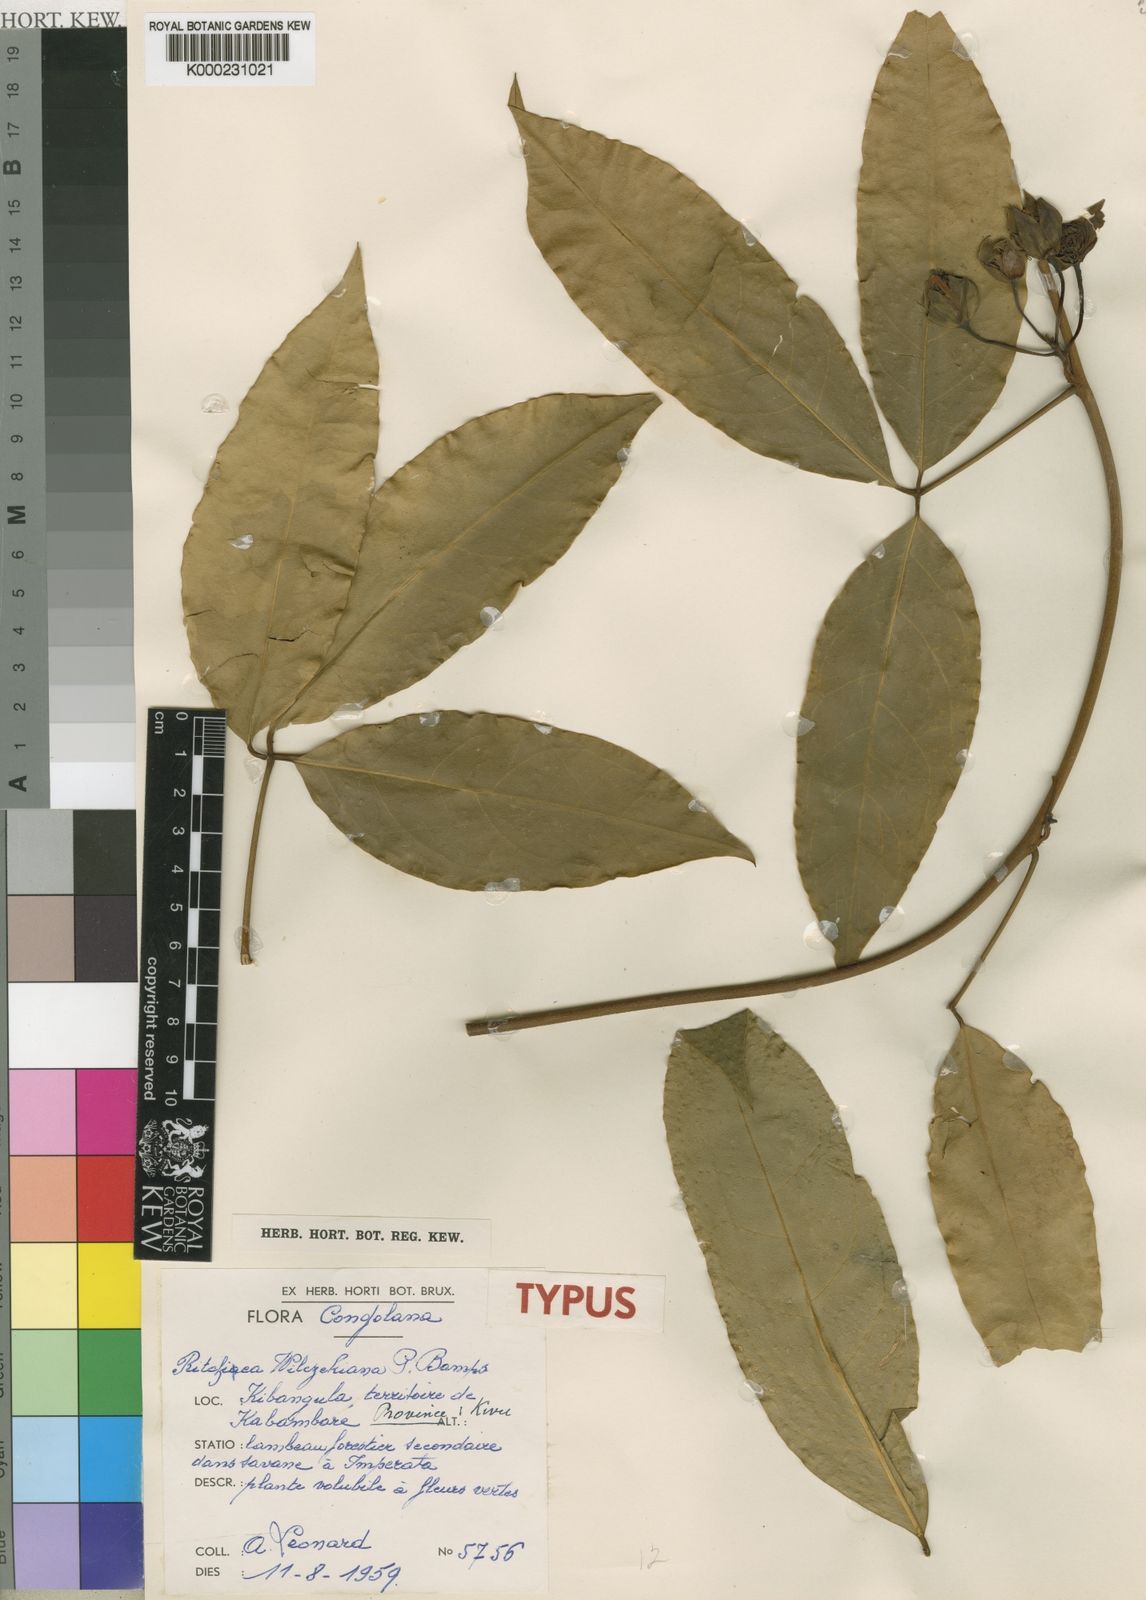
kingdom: Plantae
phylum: Tracheophyta
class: Magnoliopsida
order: Brassicales
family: Capparaceae
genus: Ritchiea
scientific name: Ritchiea wilczekiana
